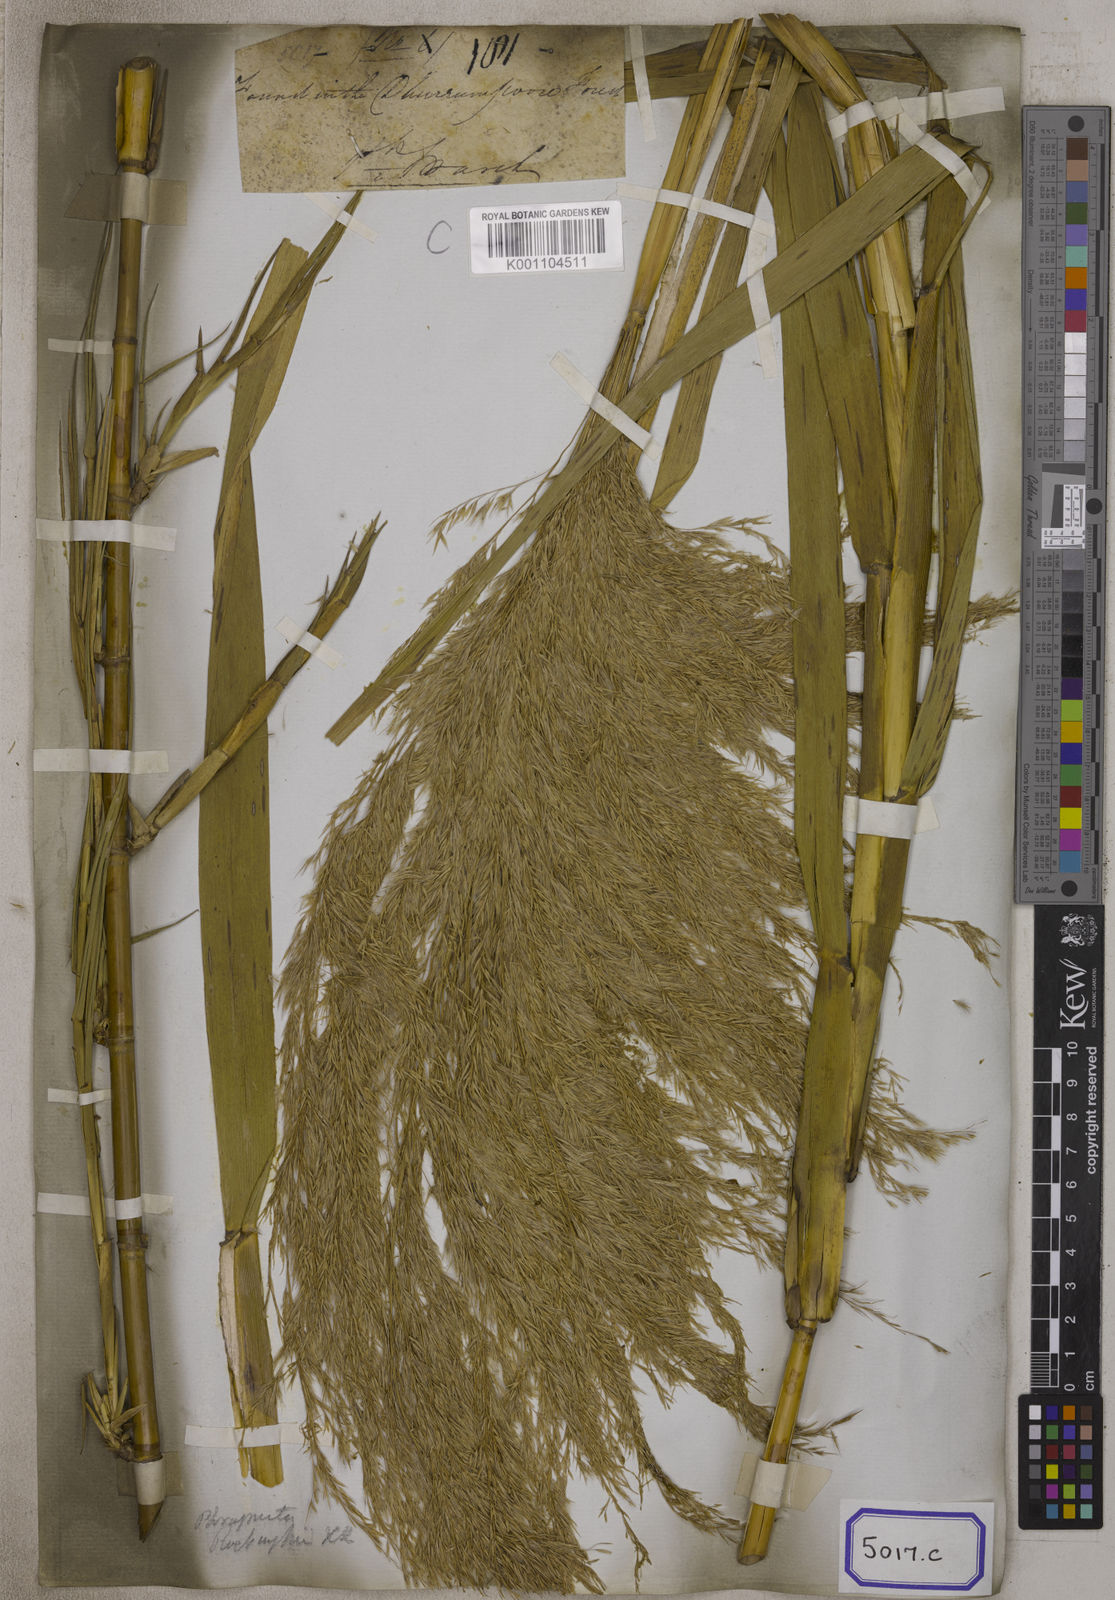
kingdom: Plantae
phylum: Tracheophyta
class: Liliopsida
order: Poales
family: Poaceae
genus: Arundo
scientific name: Arundo
